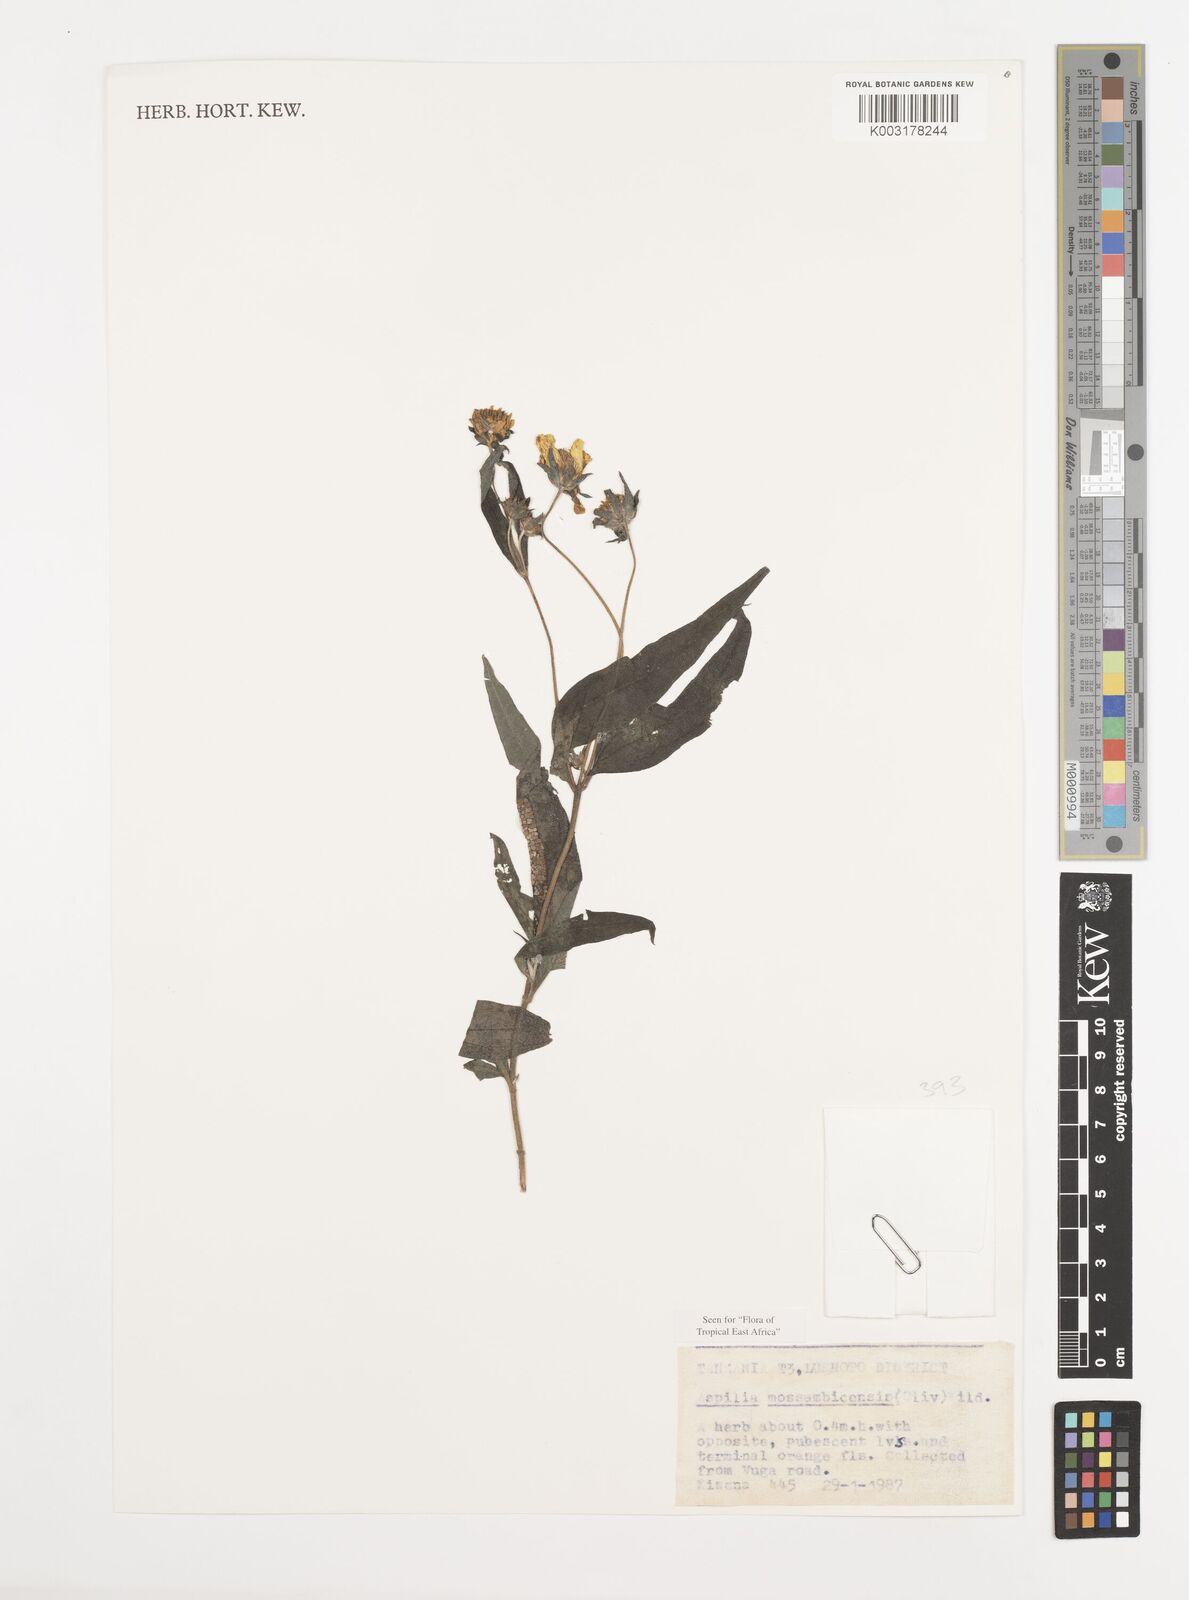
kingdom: Plantae
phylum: Tracheophyta
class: Magnoliopsida
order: Asterales
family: Asteraceae
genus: Aspilia
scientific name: Aspilia mossambicensis
